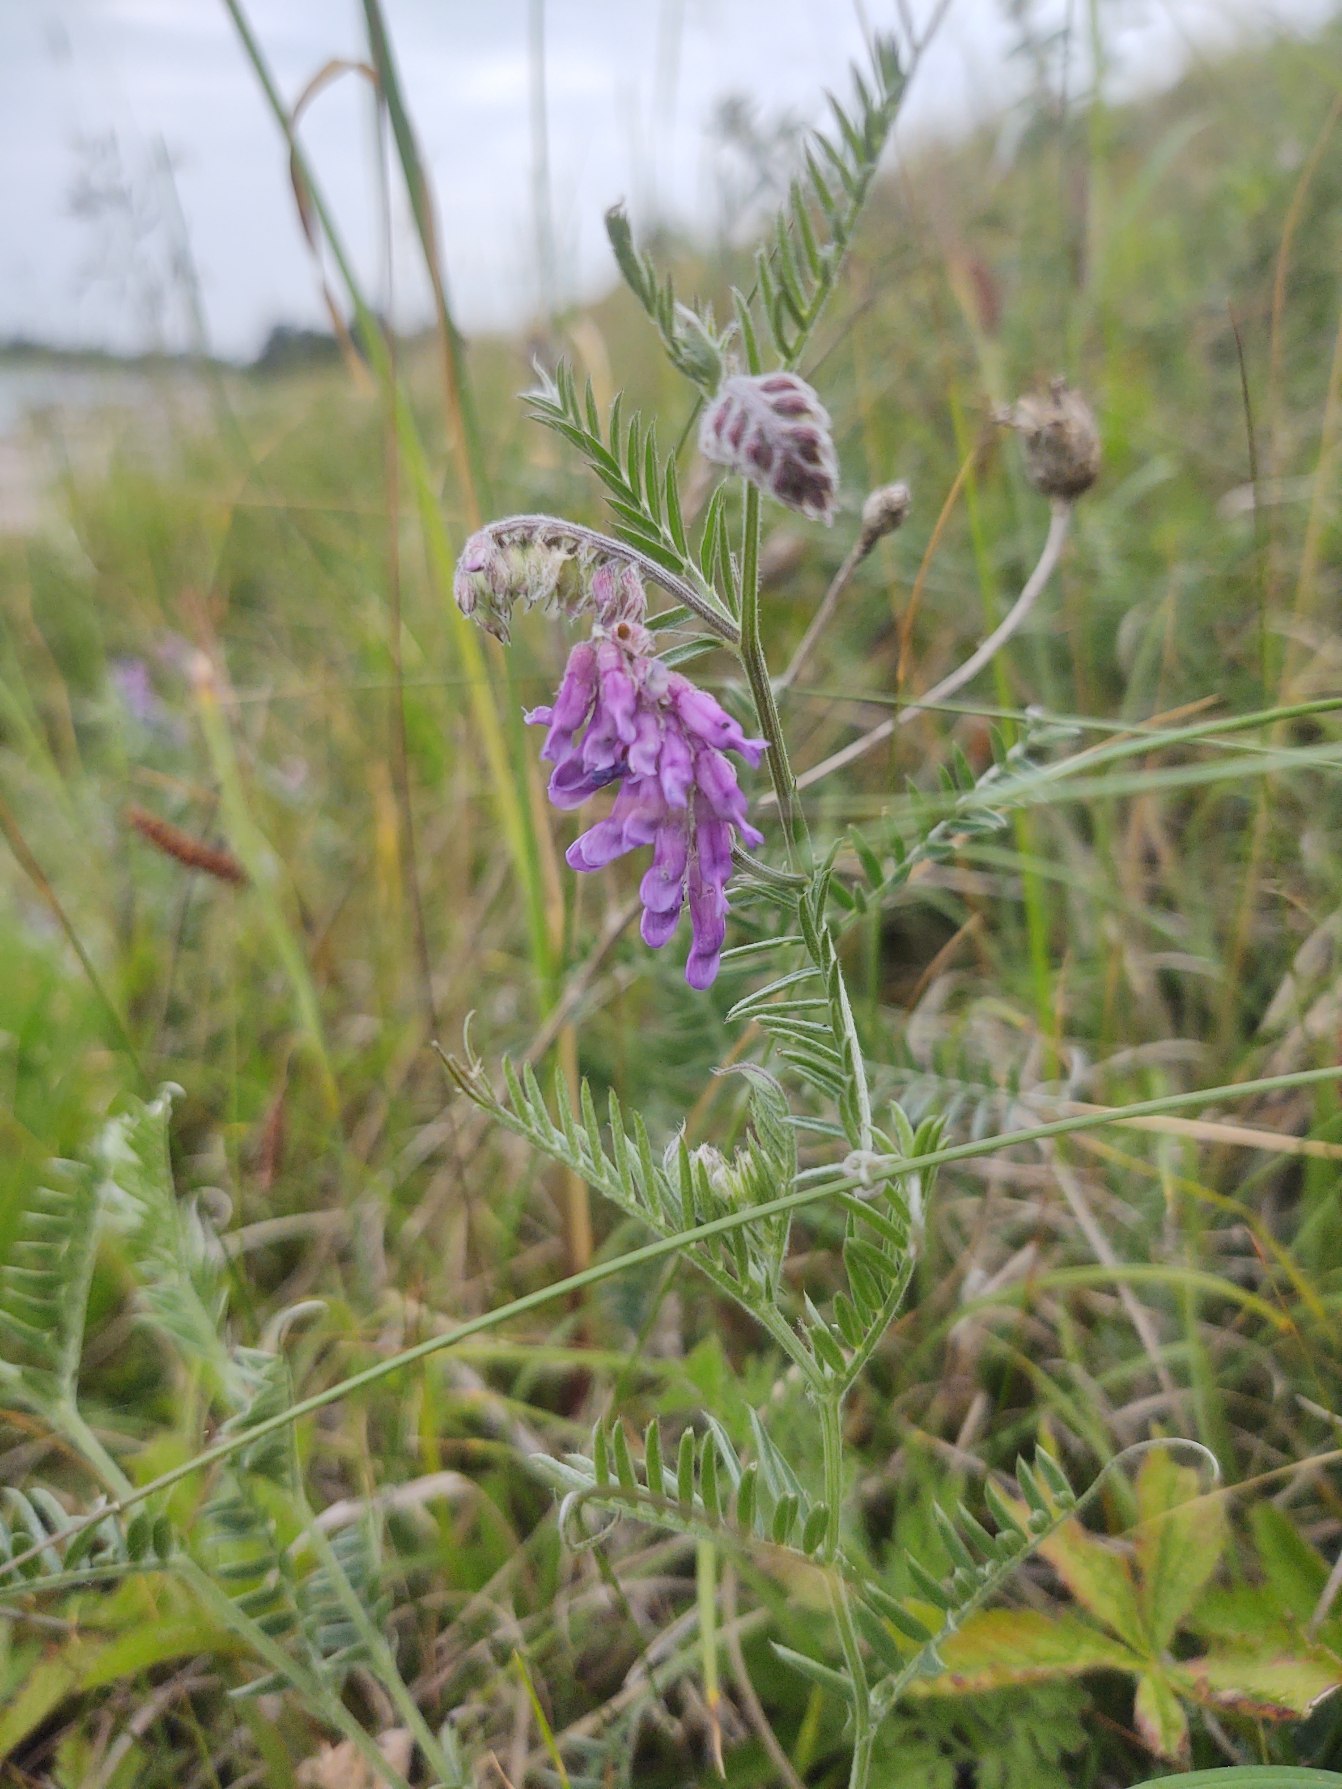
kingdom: Plantae
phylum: Tracheophyta
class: Magnoliopsida
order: Fabales
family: Fabaceae
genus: Vicia
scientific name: Vicia cracca
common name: Muse-vikke
